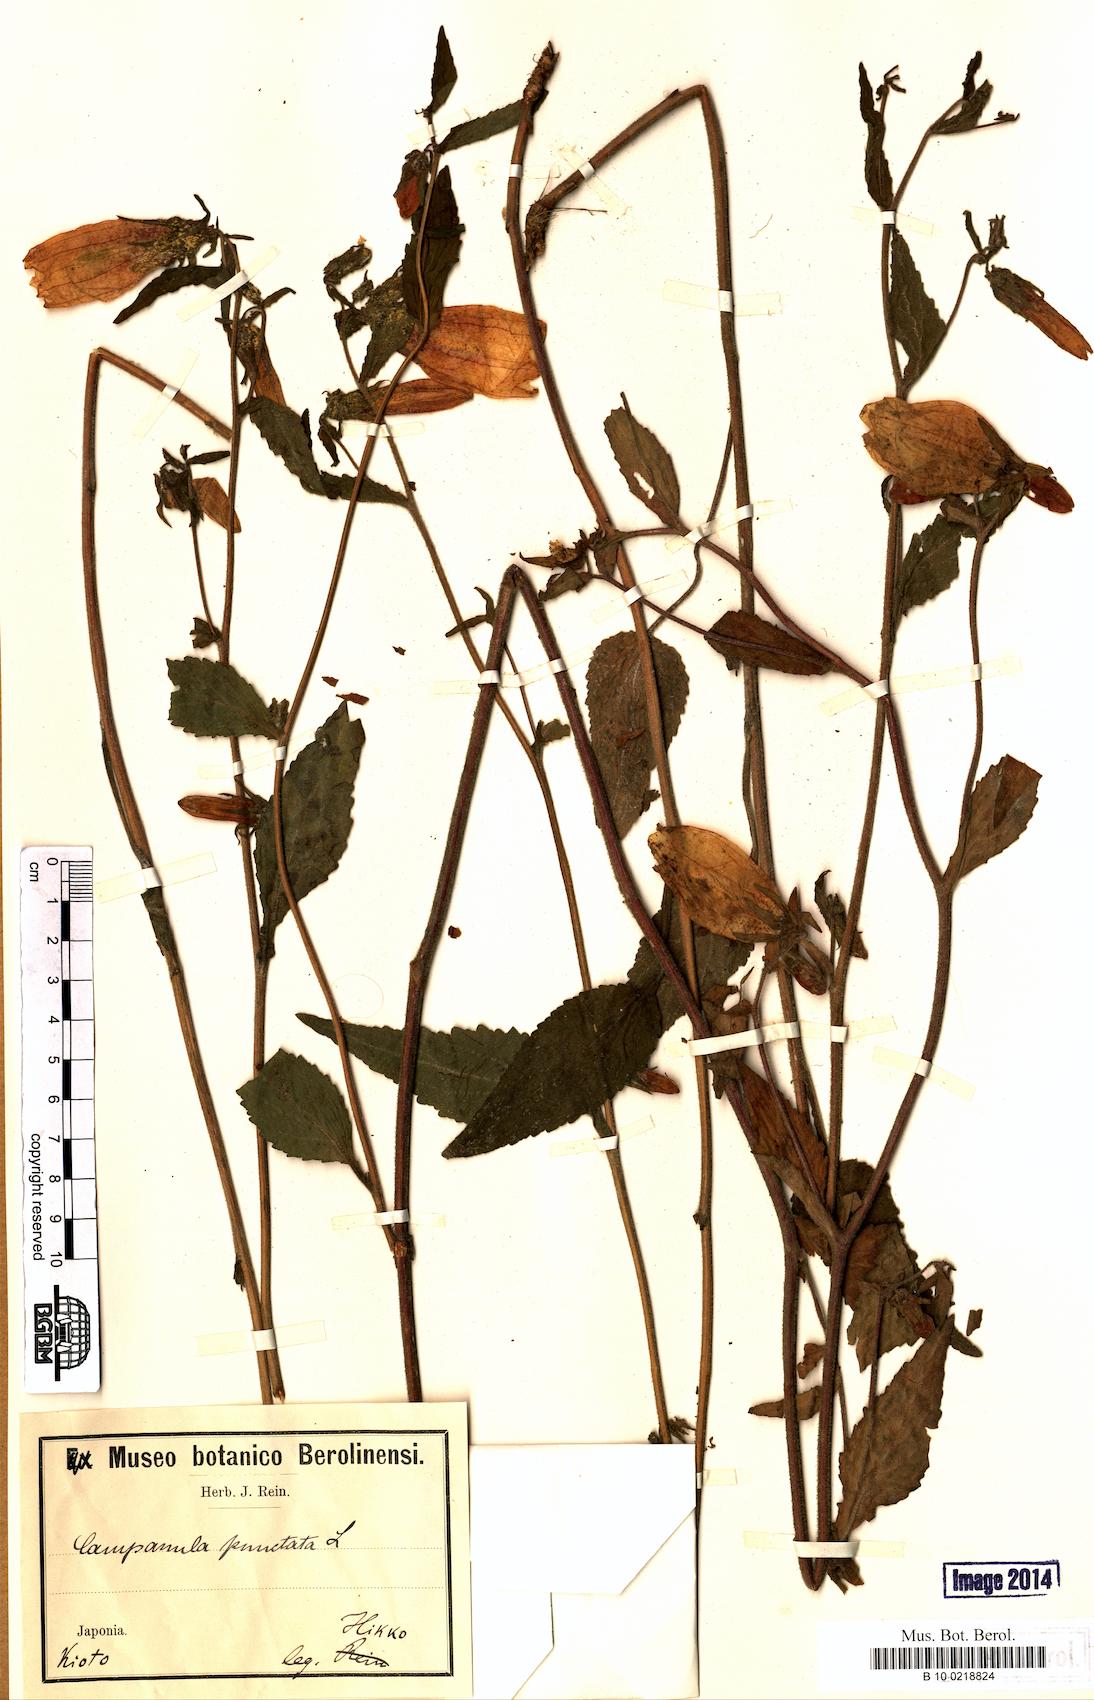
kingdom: Plantae
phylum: Tracheophyta
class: Magnoliopsida
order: Asterales
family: Campanulaceae
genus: Campanula
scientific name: Campanula punctata
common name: Spotted bellflower
